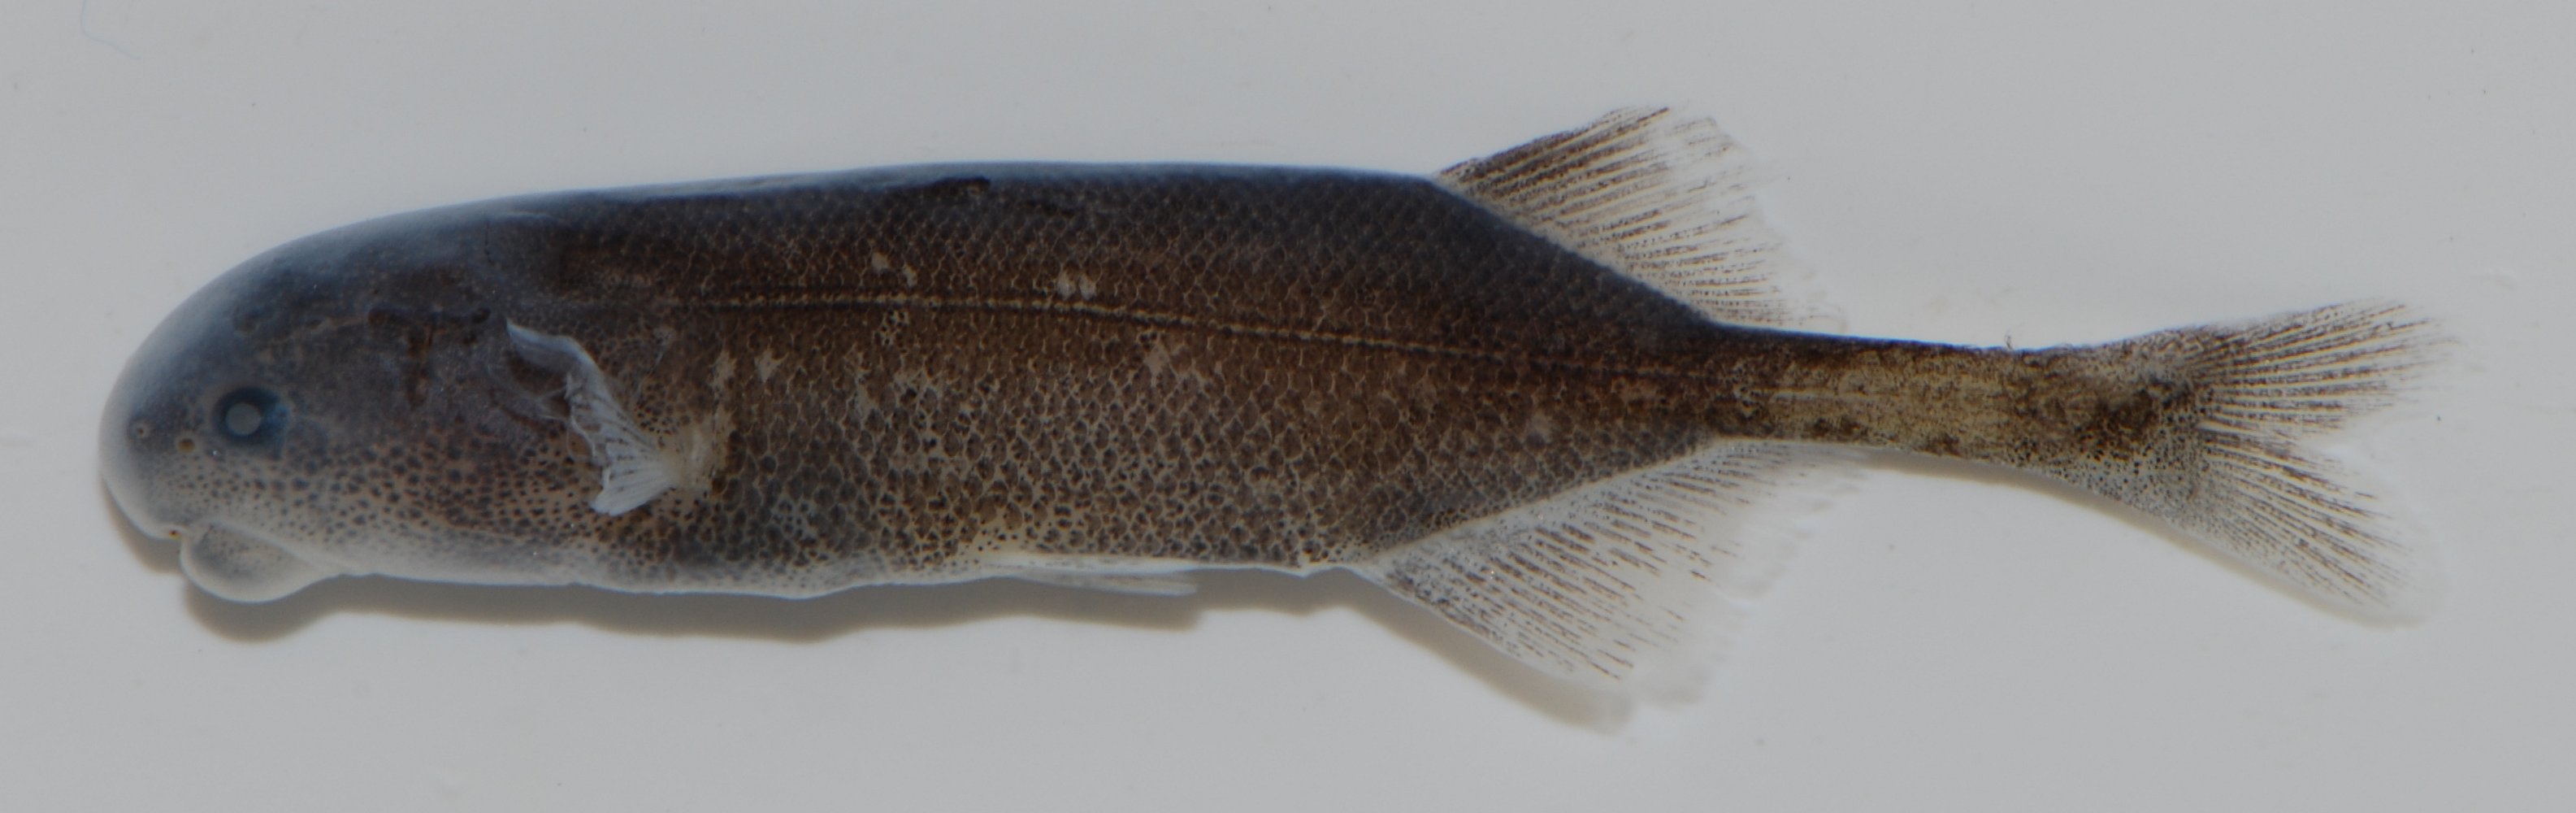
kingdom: Animalia
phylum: Chordata
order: Osteoglossiformes
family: Mormyridae
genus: Brienomyrus
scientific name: Brienomyrus
